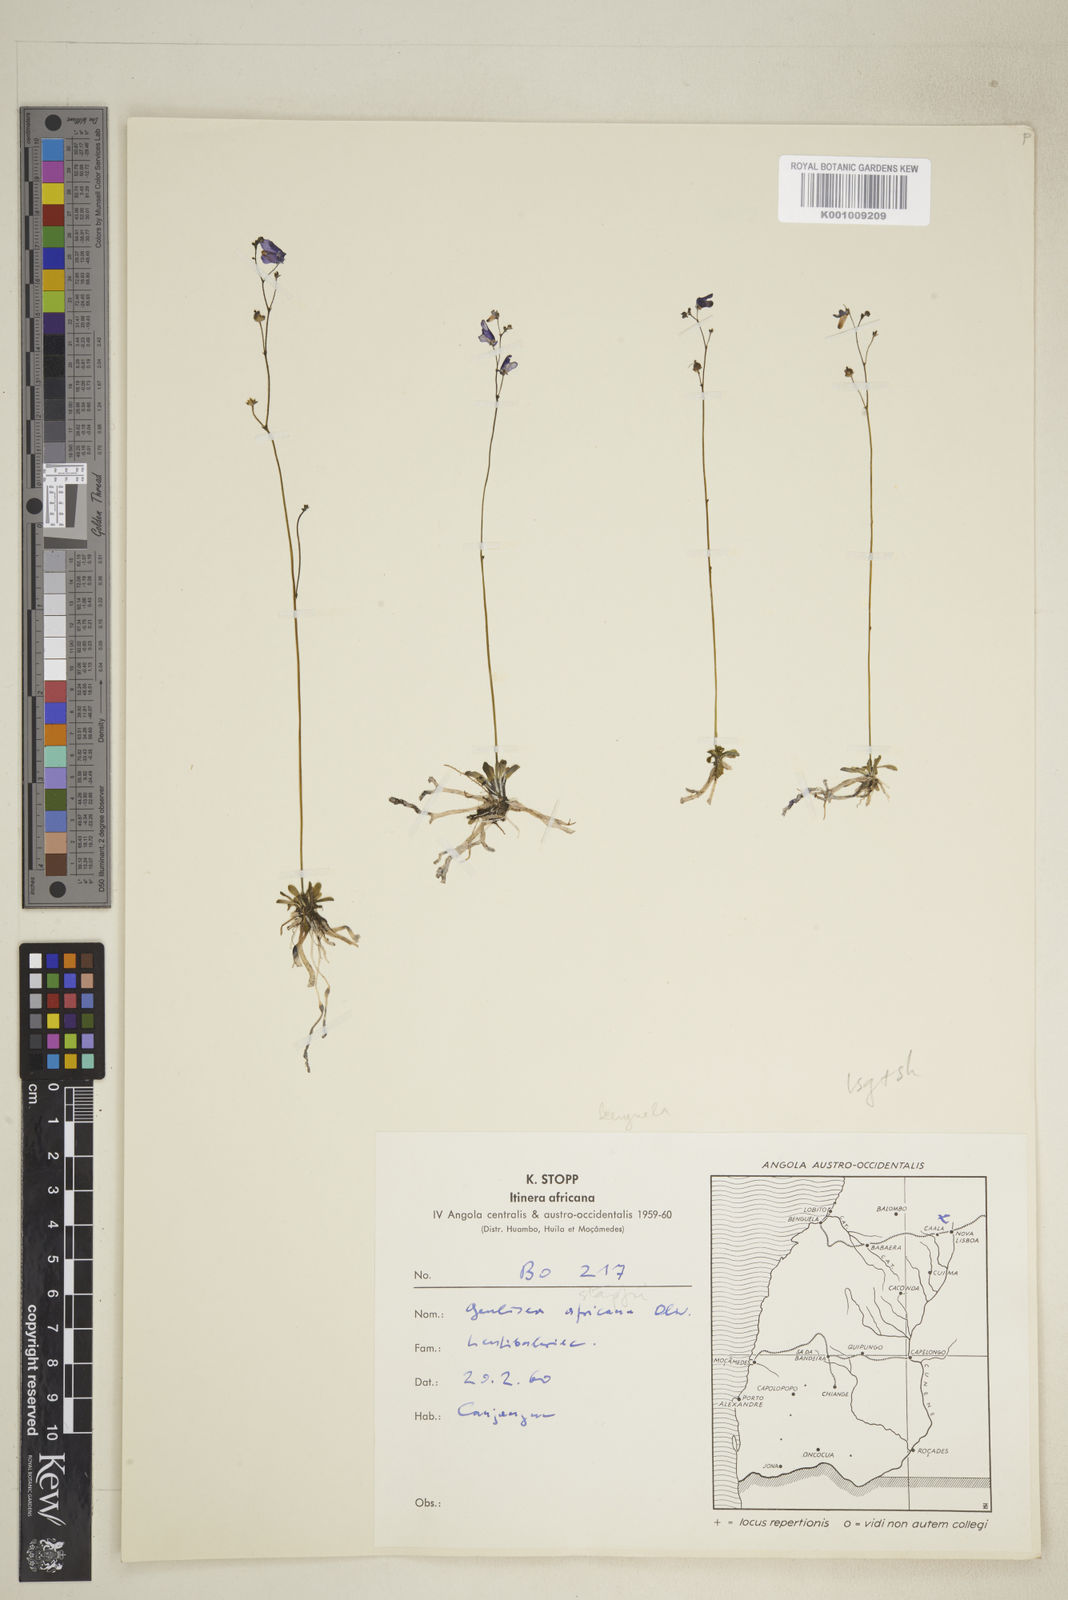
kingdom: Plantae
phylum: Tracheophyta
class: Magnoliopsida
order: Lamiales
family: Lentibulariaceae
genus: Genlisea
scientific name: Genlisea africana
